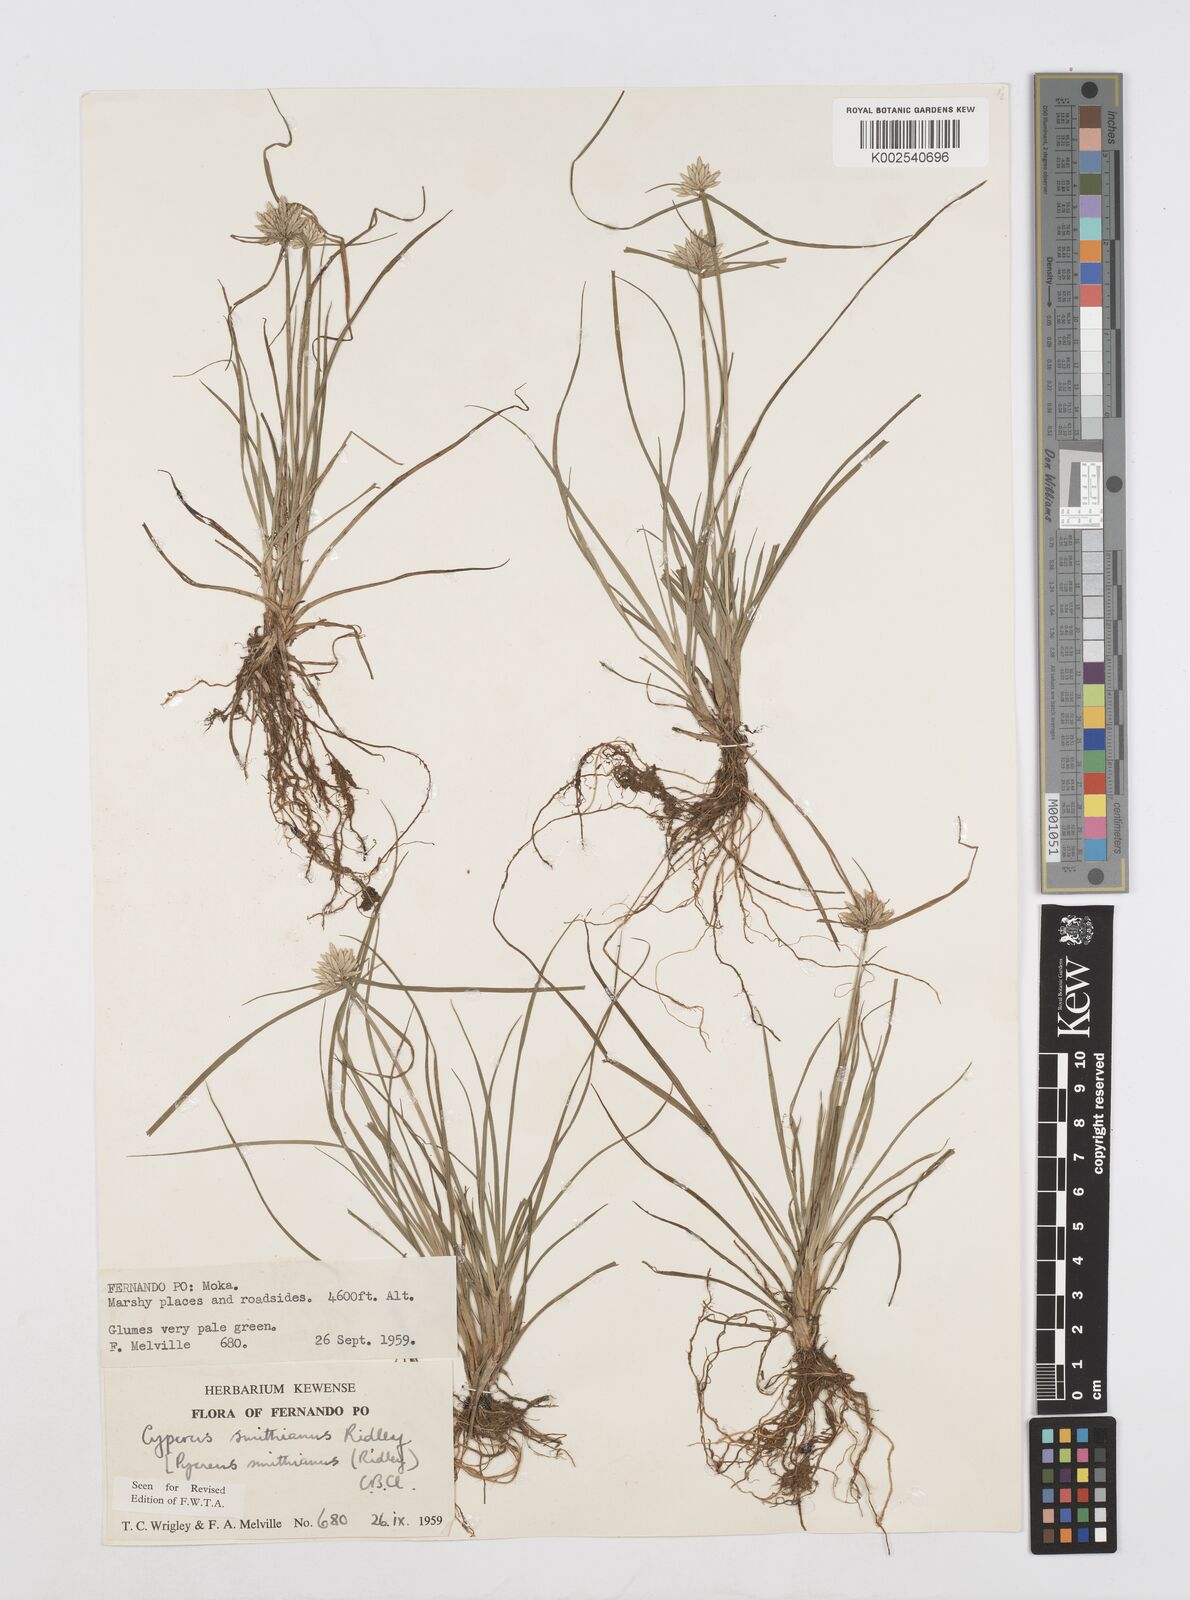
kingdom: Plantae
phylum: Tracheophyta
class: Liliopsida
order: Poales
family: Cyperaceae
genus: Cyperus
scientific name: Cyperus smithianus
